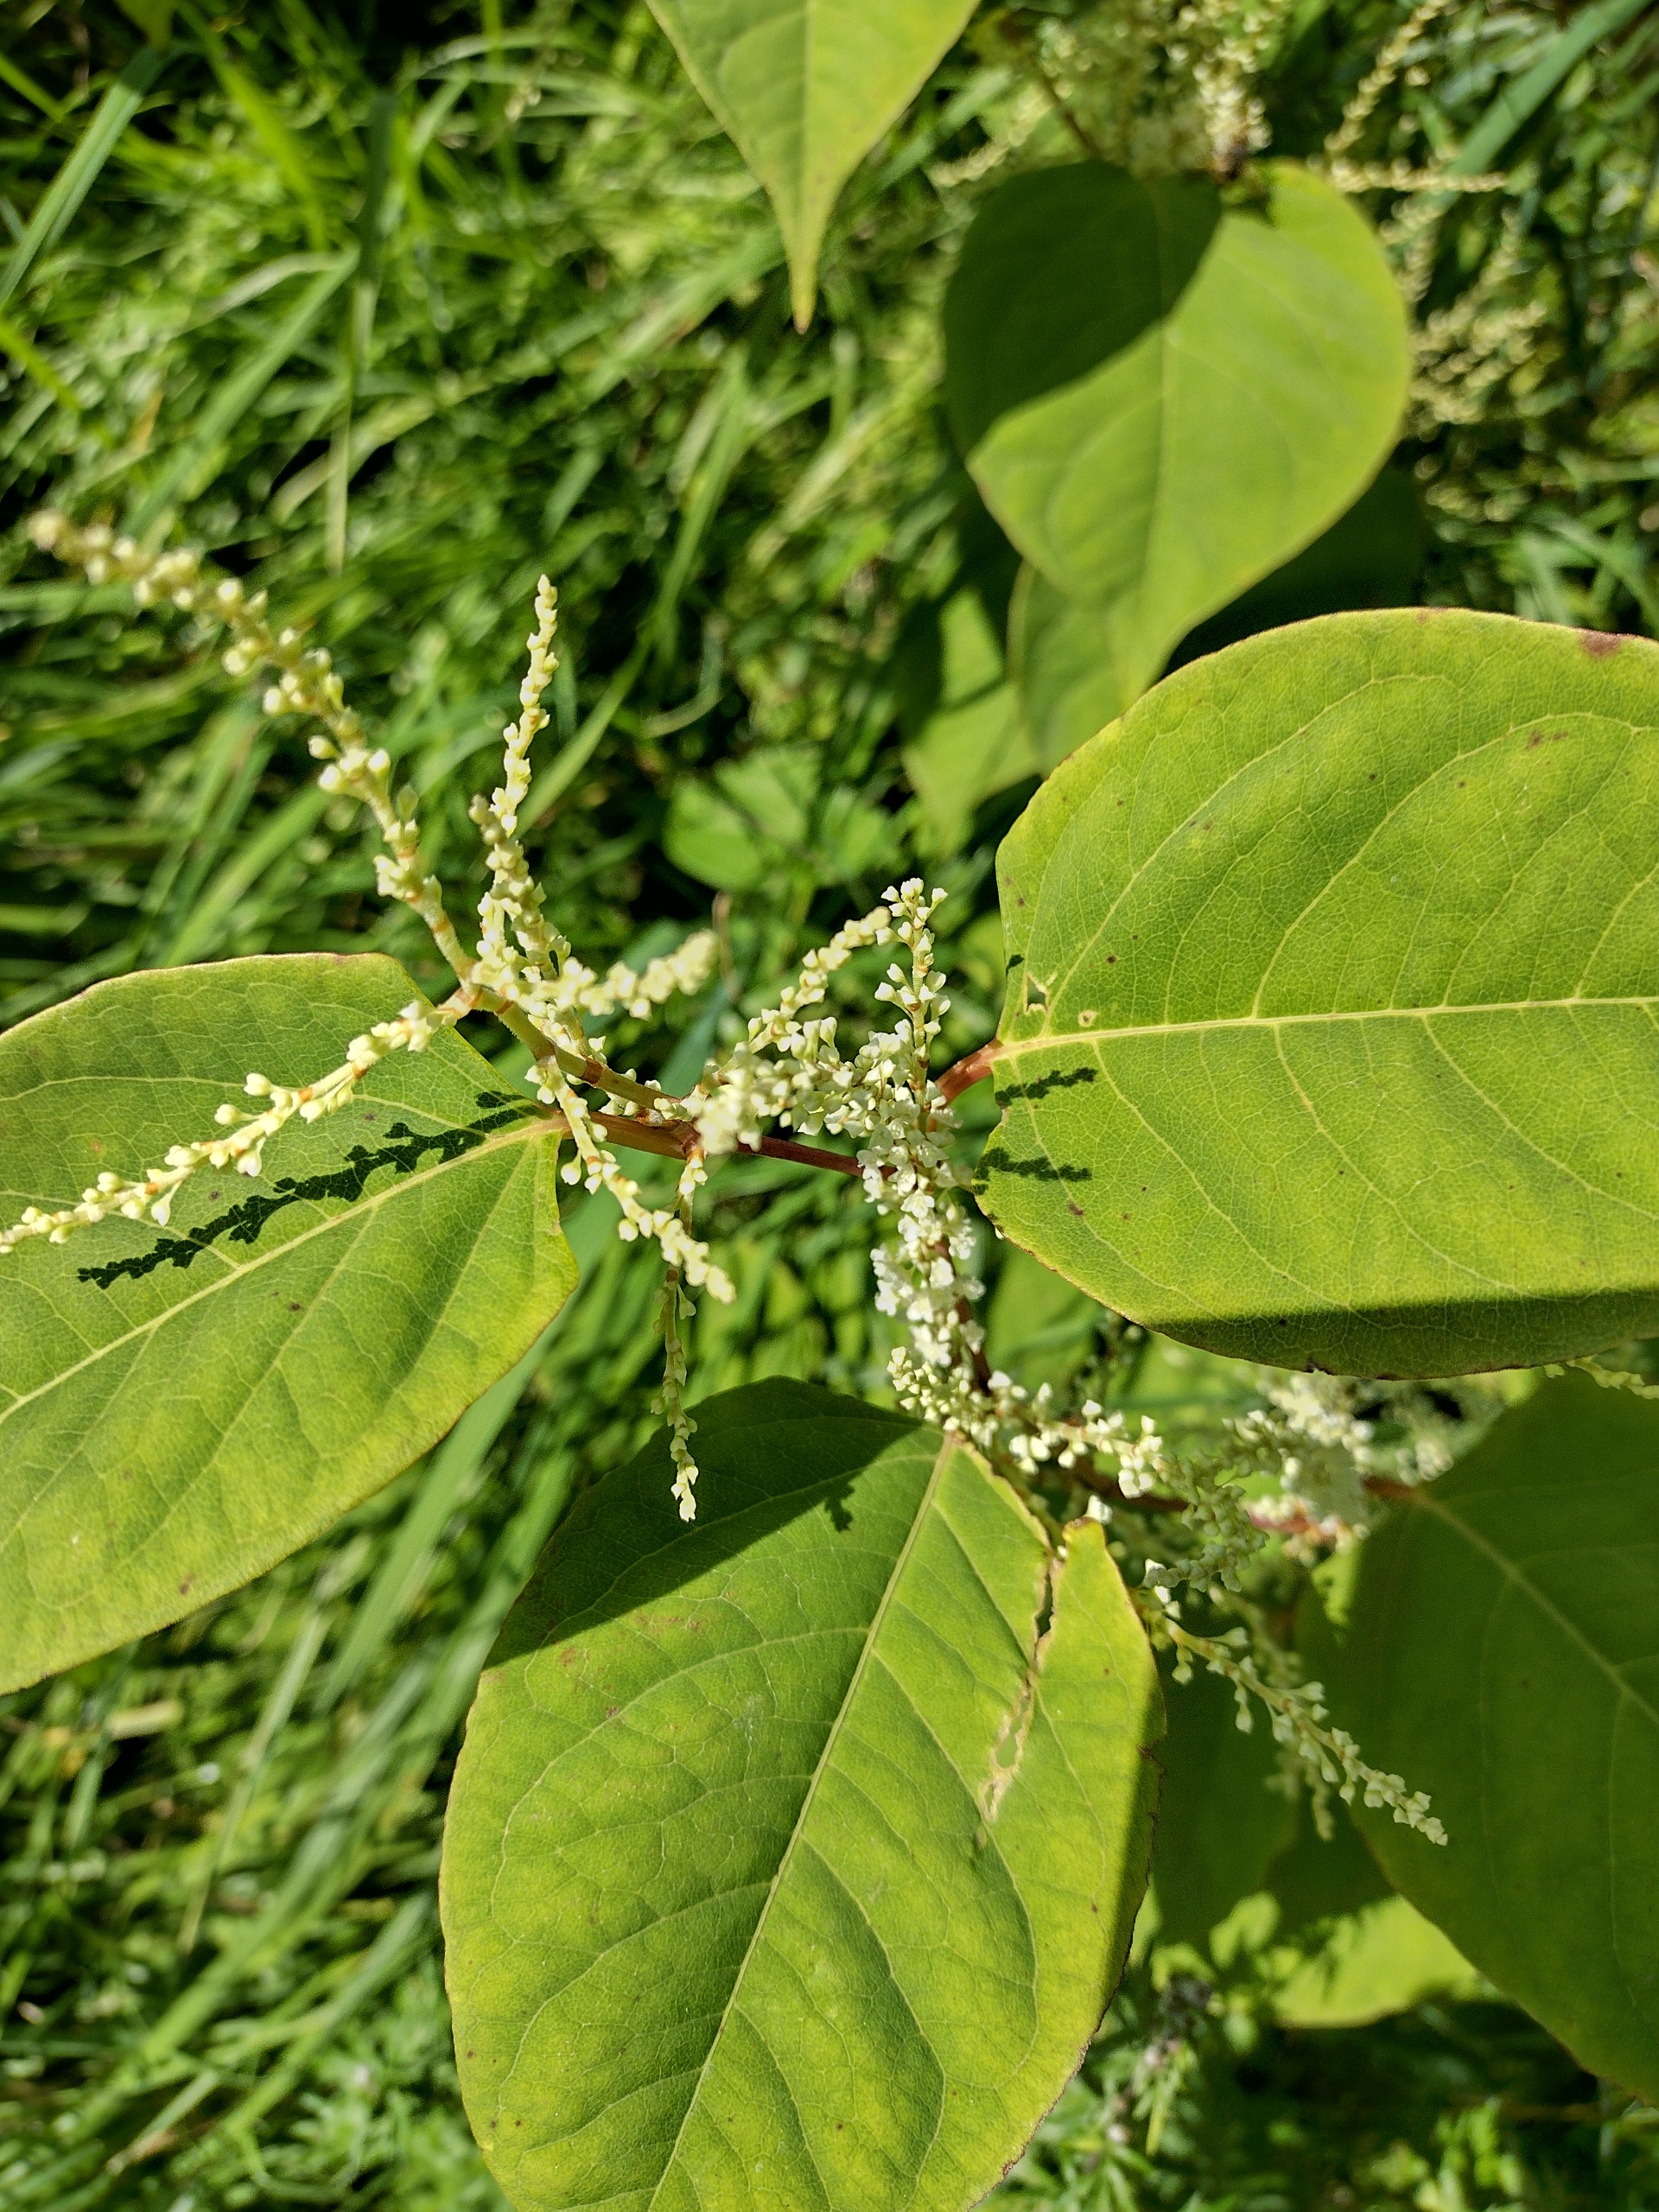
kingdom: Plantae
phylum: Tracheophyta
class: Magnoliopsida
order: Caryophyllales
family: Polygonaceae
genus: Reynoutria
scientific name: Reynoutria japonica
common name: Japan-pileurt
